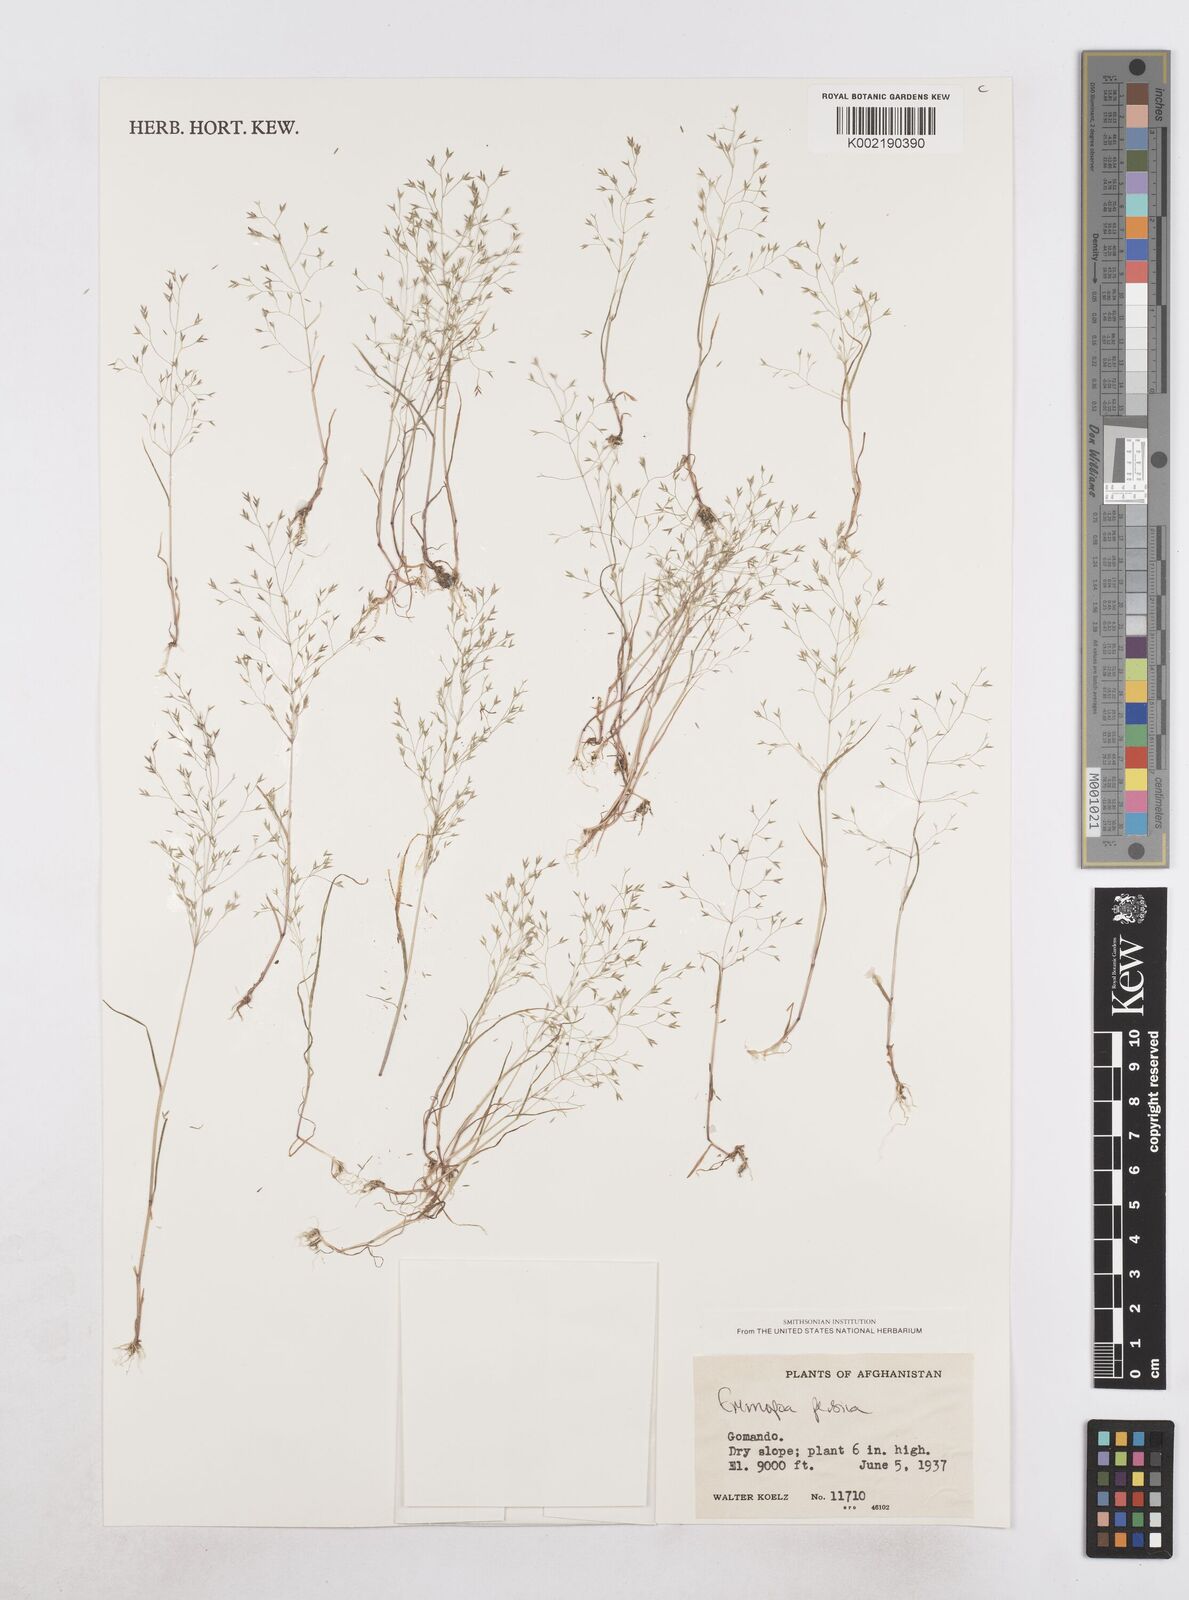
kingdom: Plantae
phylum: Tracheophyta
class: Liliopsida
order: Poales
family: Poaceae
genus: Poa
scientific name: Poa persica
